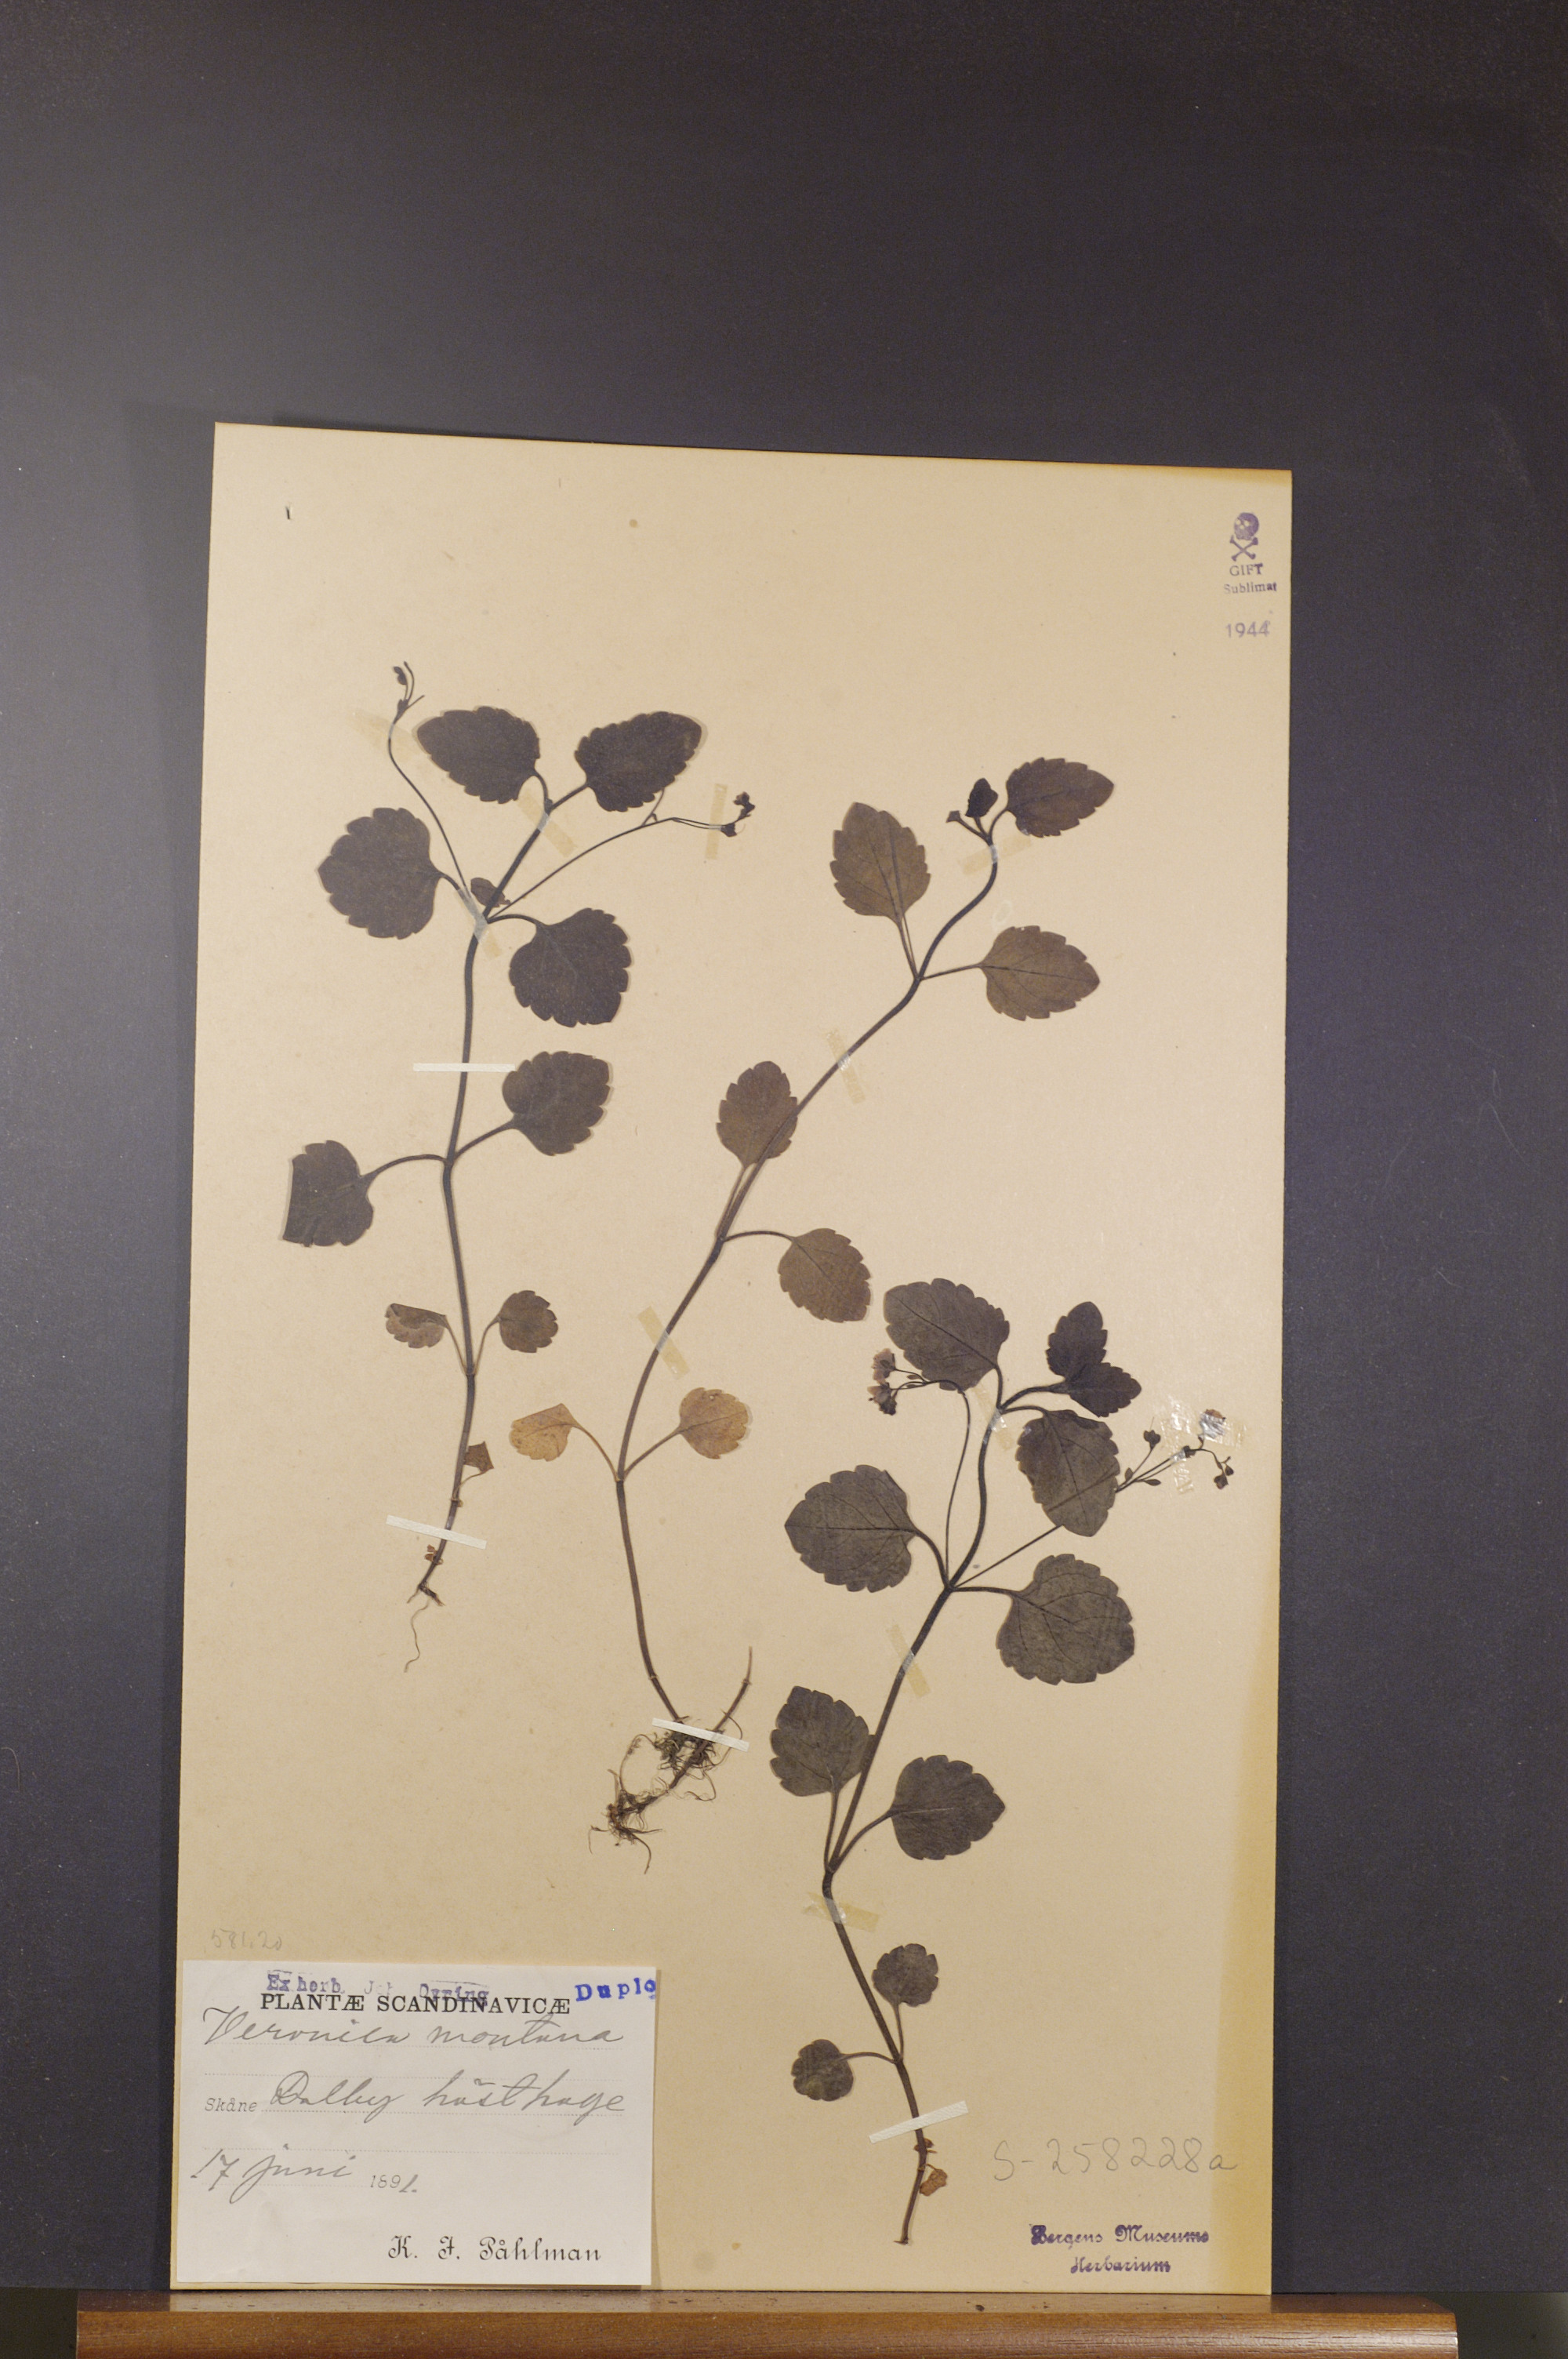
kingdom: Plantae
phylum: Tracheophyta
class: Magnoliopsida
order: Lamiales
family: Plantaginaceae
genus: Veronica
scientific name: Veronica montana
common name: Wood speedwell
